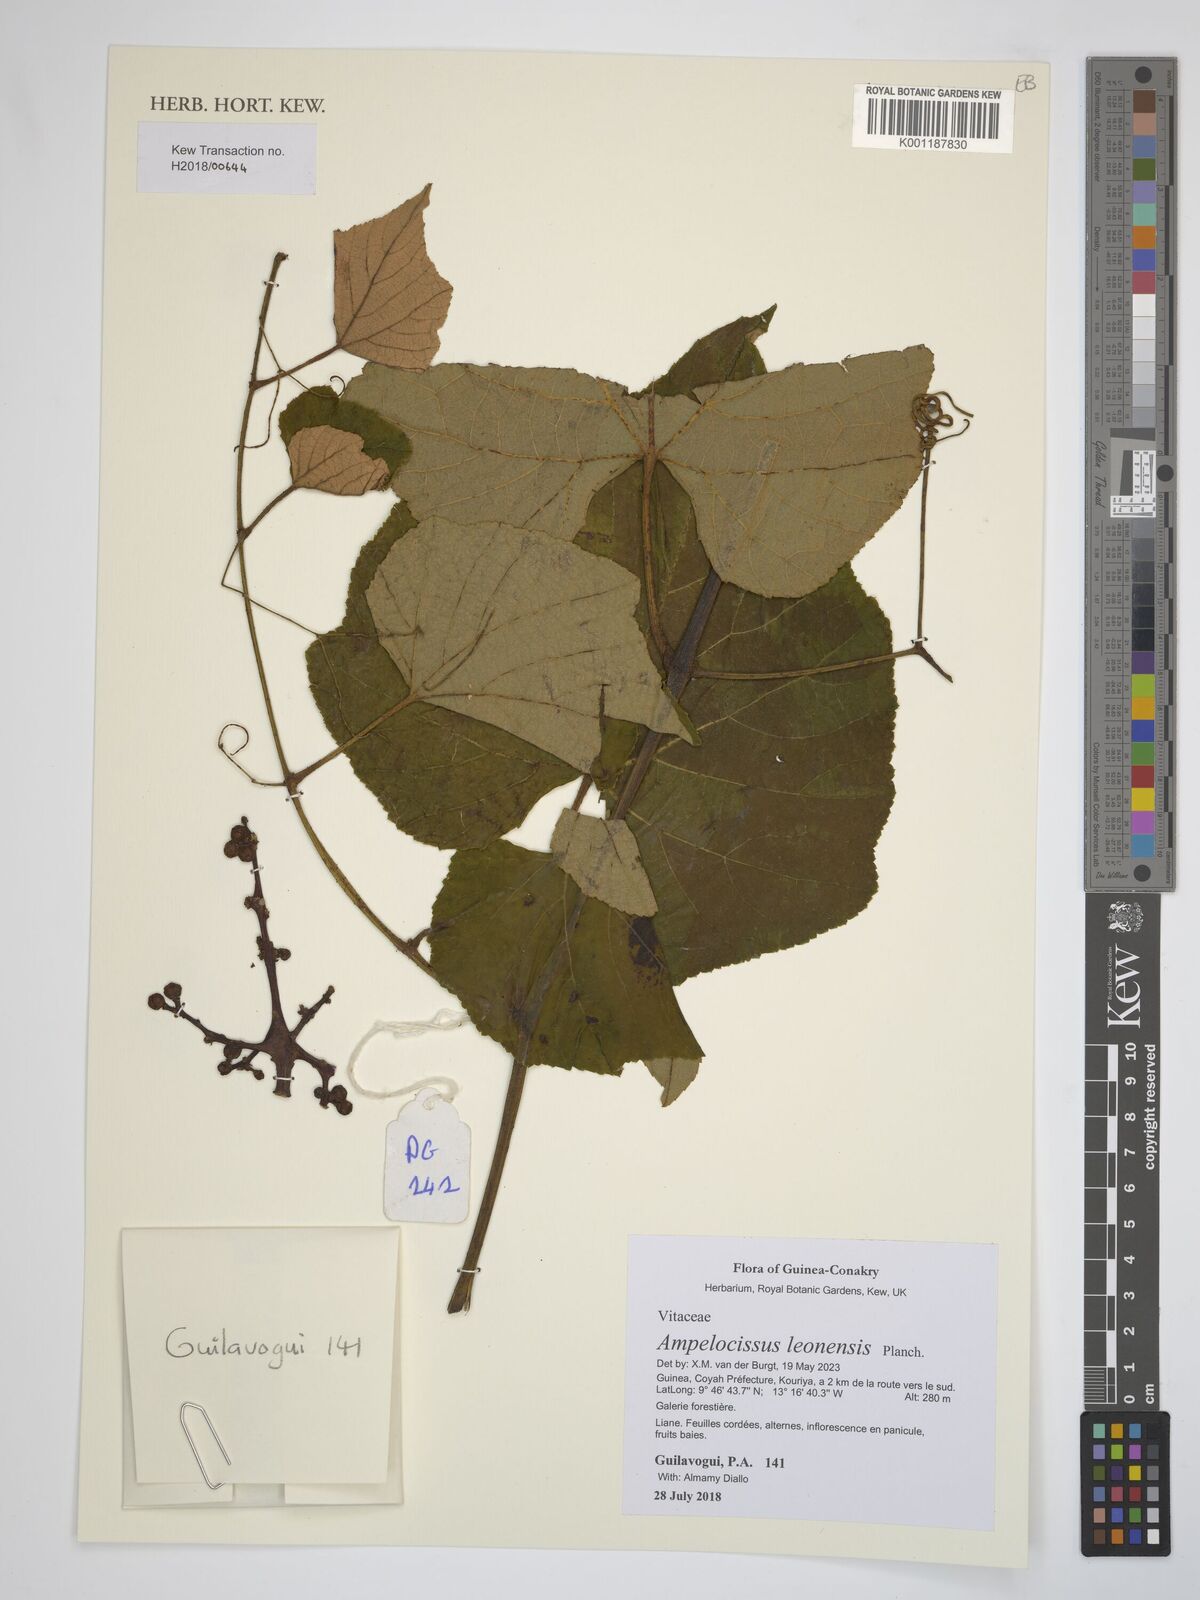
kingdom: Plantae
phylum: Tracheophyta
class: Magnoliopsida
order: Vitales
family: Vitaceae
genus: Ampelocissus
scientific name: Ampelocissus leonensis
